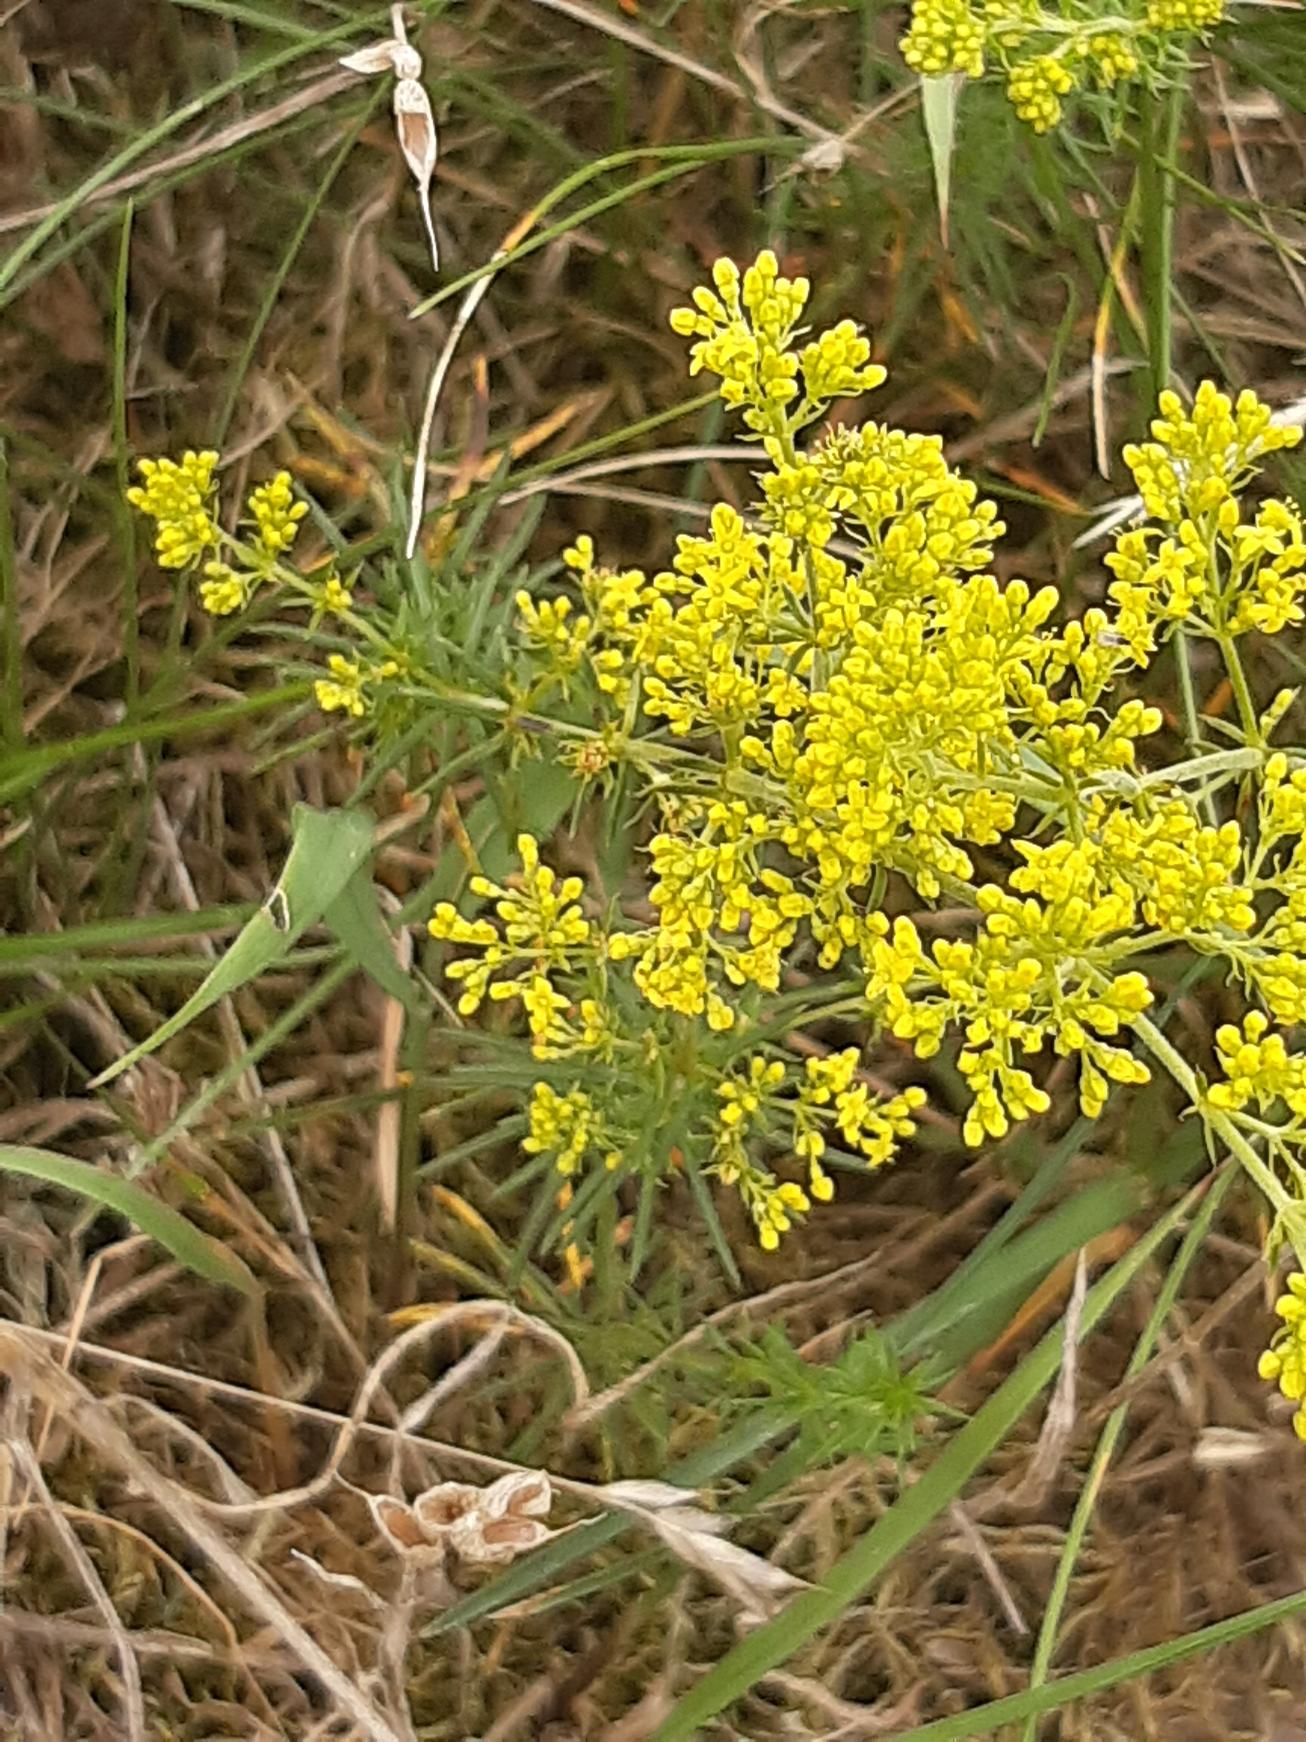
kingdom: Plantae
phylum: Tracheophyta
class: Magnoliopsida
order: Gentianales
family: Rubiaceae
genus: Galium
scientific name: Galium verum
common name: Gul snerre
